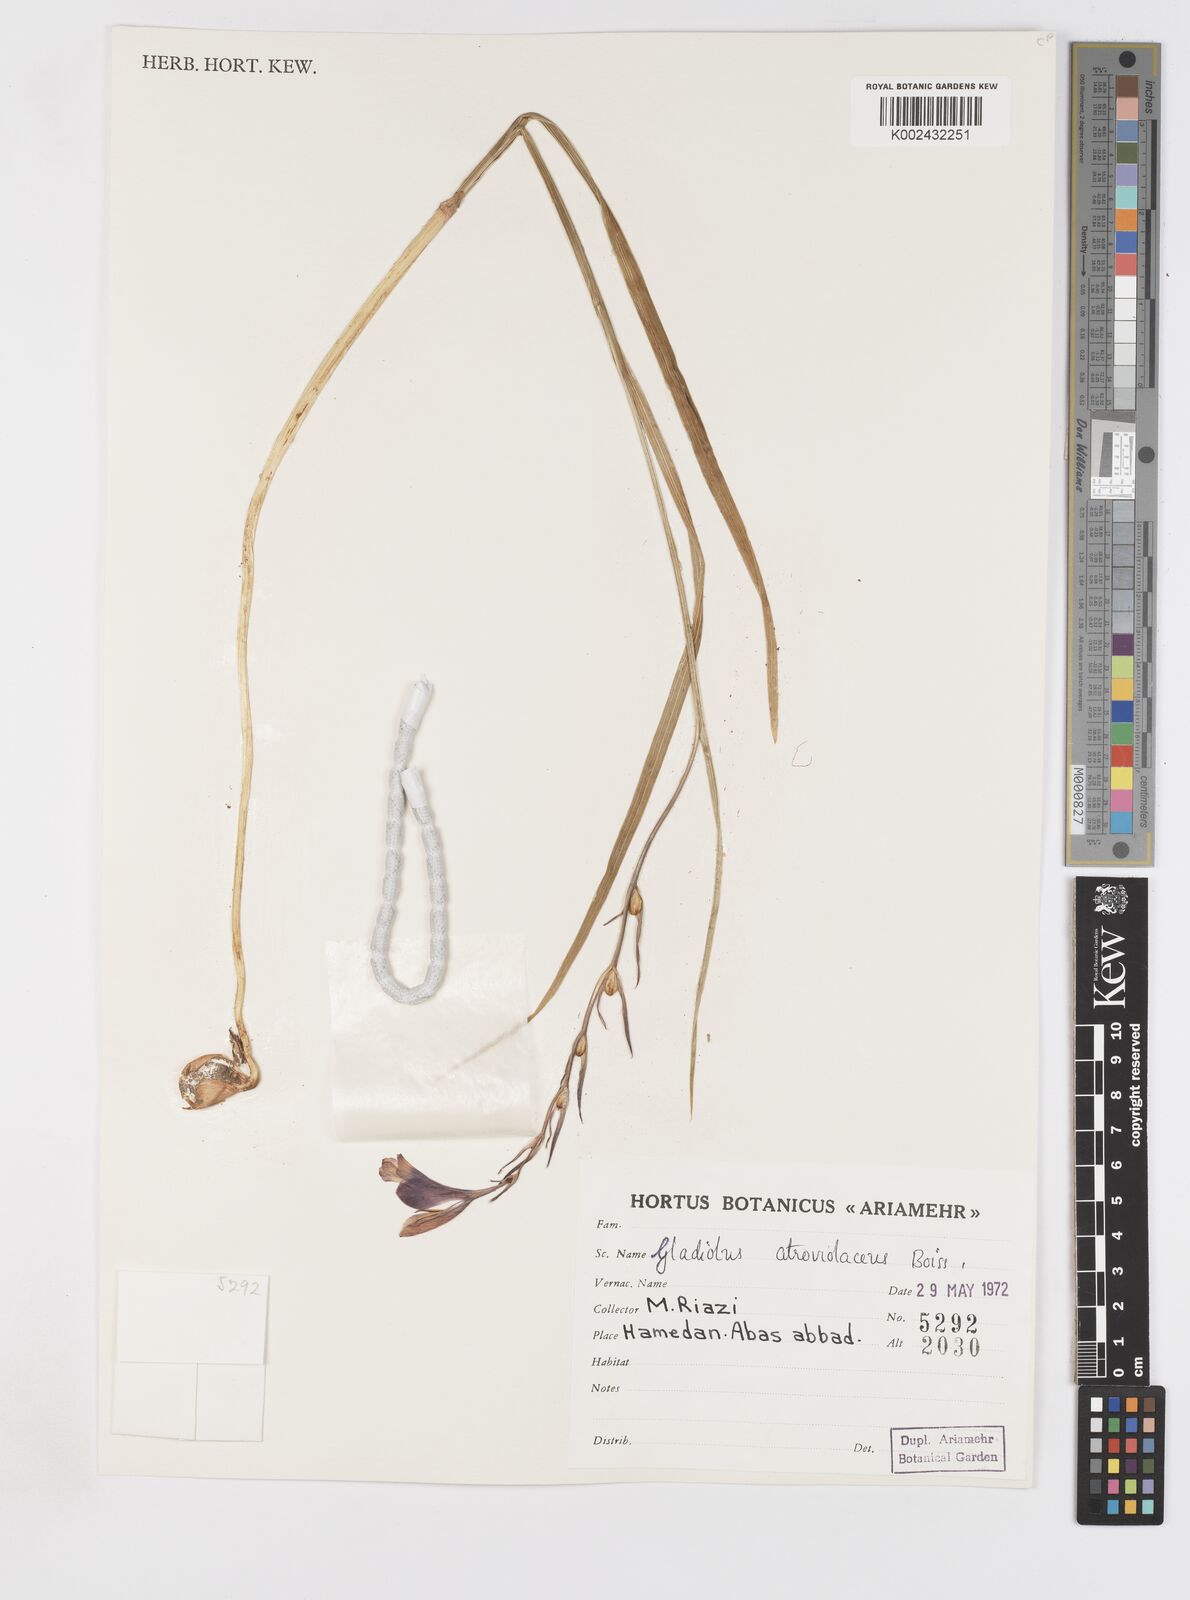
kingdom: Plantae
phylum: Tracheophyta
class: Liliopsida
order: Asparagales
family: Iridaceae
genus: Gladiolus
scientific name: Gladiolus atroviolaceus
